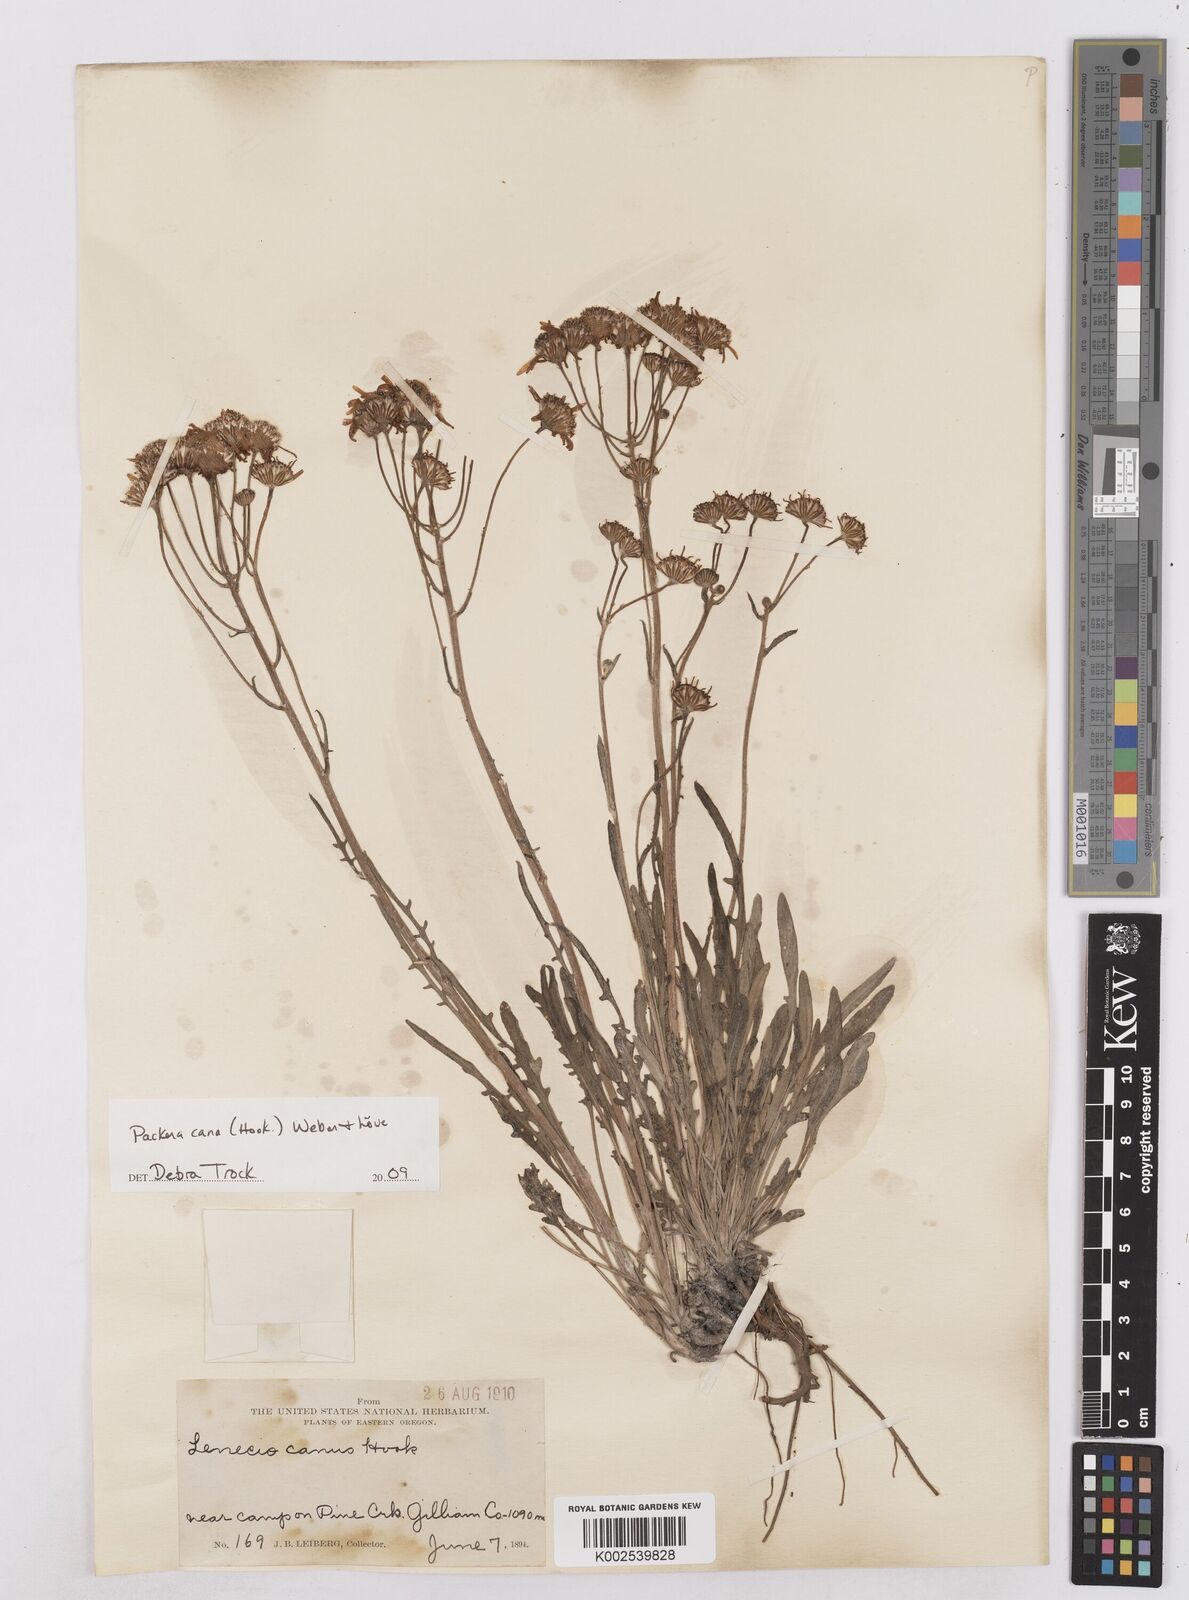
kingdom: Plantae
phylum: Tracheophyta
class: Magnoliopsida
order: Asterales
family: Asteraceae
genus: Packera
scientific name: Packera cana
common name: Woolly groundsel
